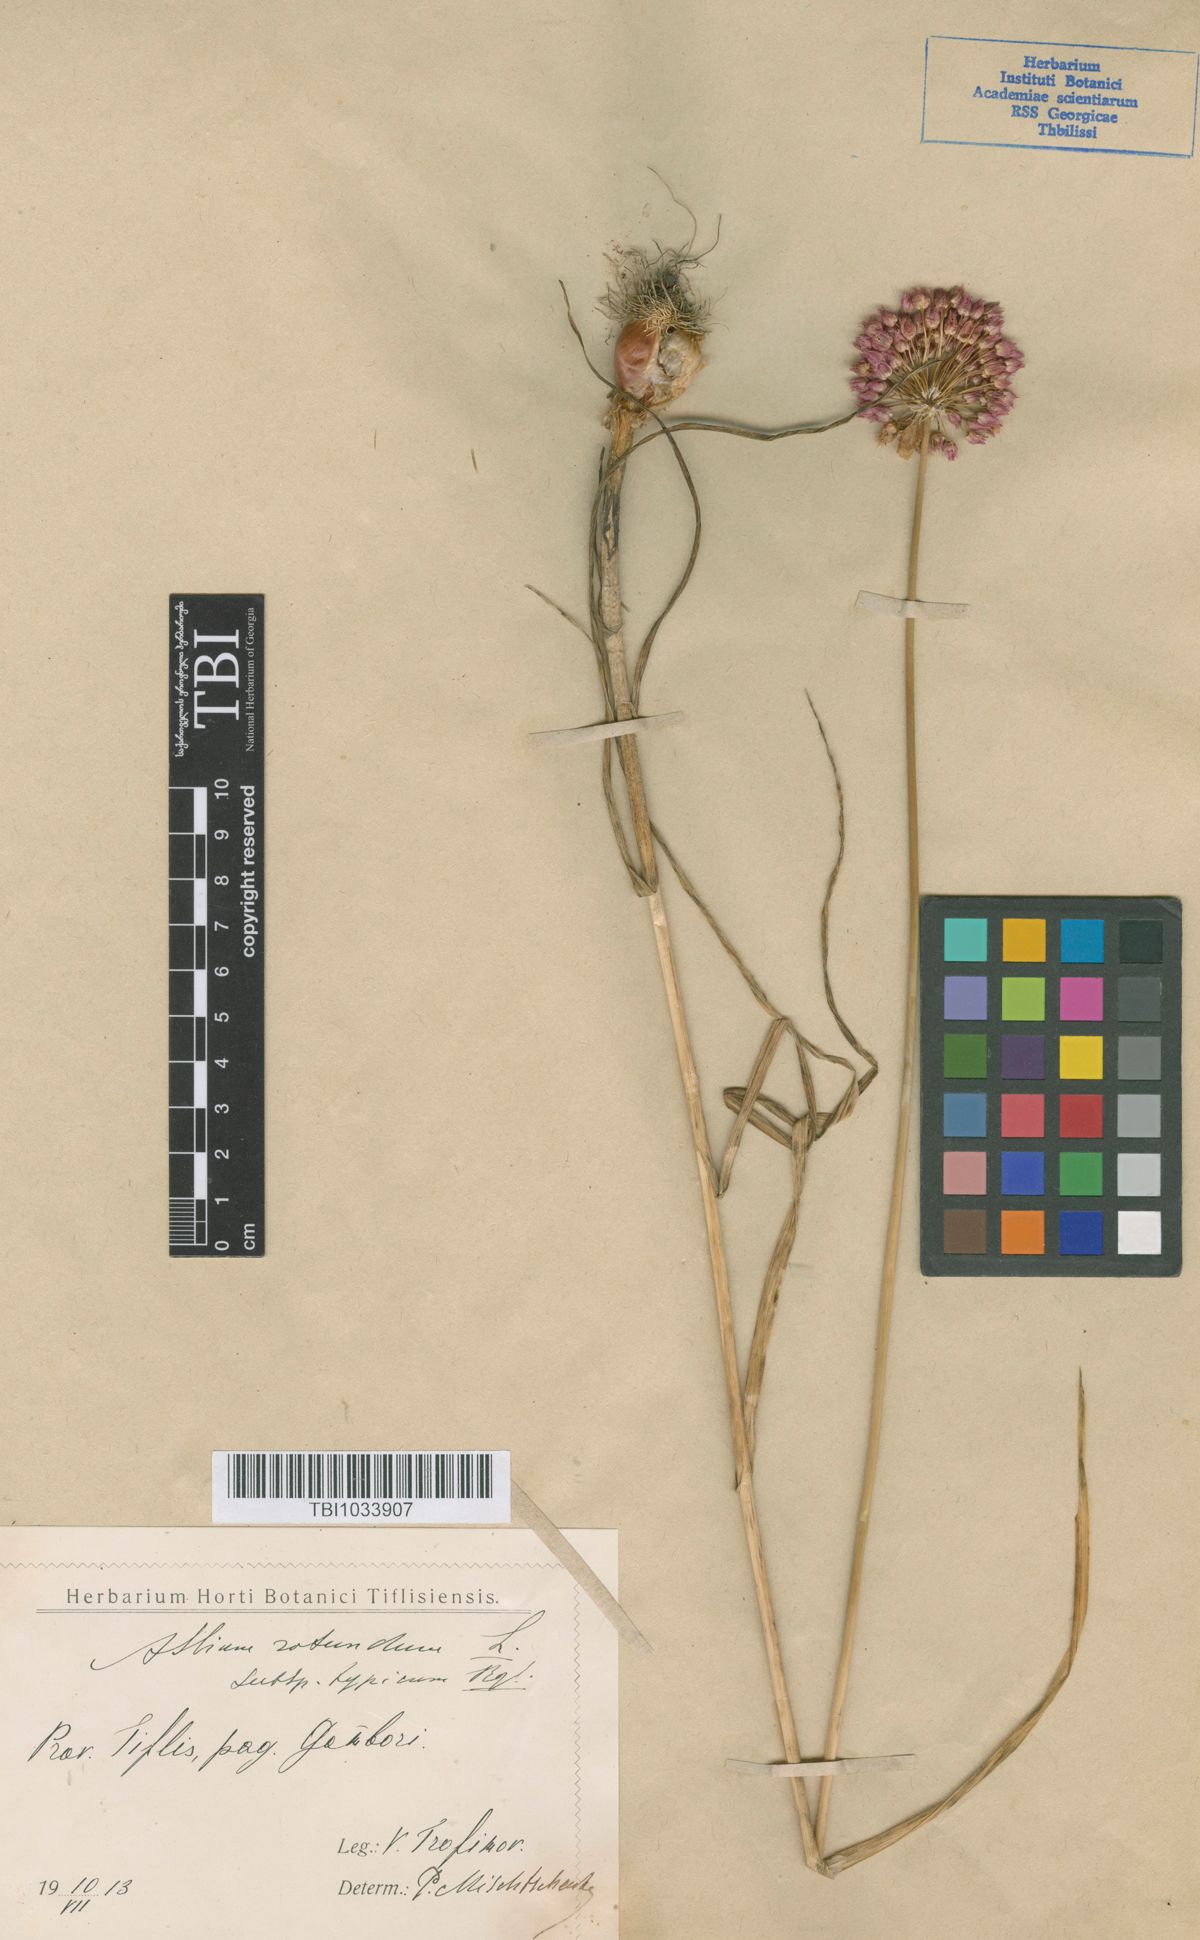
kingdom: Plantae
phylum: Tracheophyta
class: Liliopsida
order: Asparagales
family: Amaryllidaceae
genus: Allium
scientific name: Allium rotundum
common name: Sand leek
